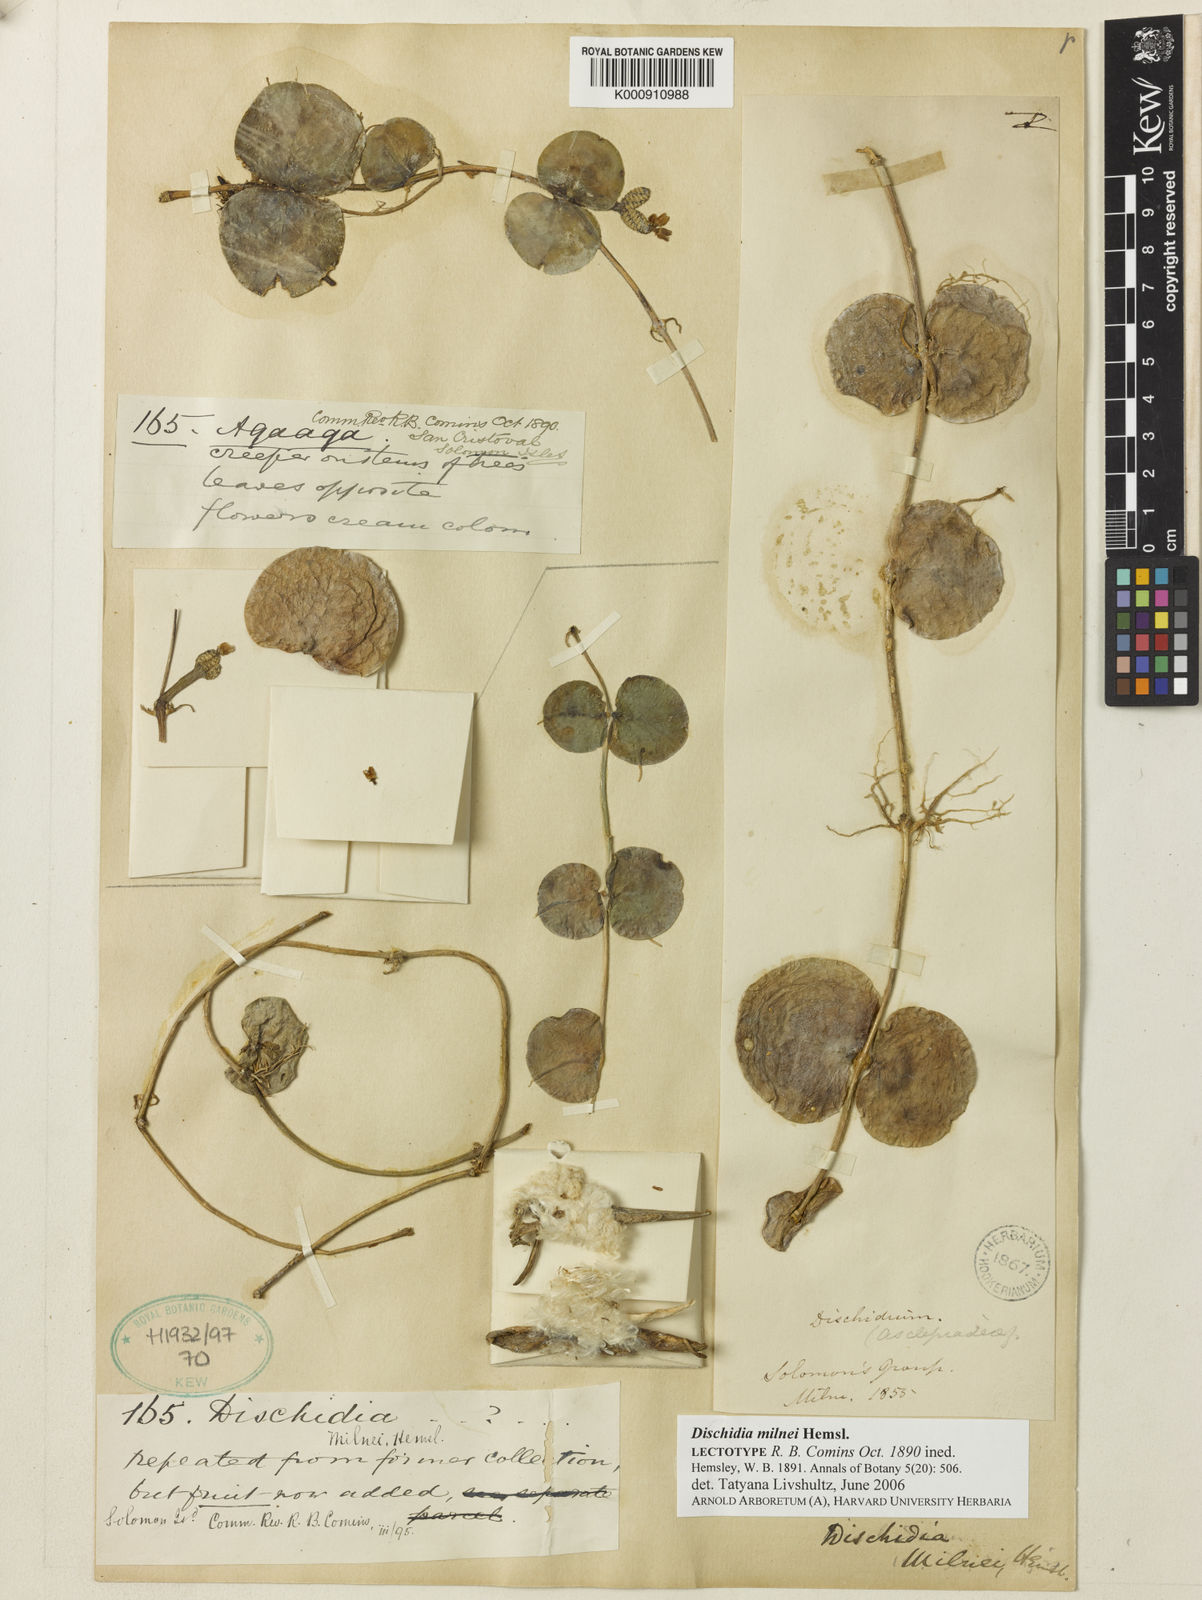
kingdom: Plantae
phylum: Tracheophyta
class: Magnoliopsida
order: Gentianales
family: Apocynaceae
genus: Dischidia
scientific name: Dischidia milnei
